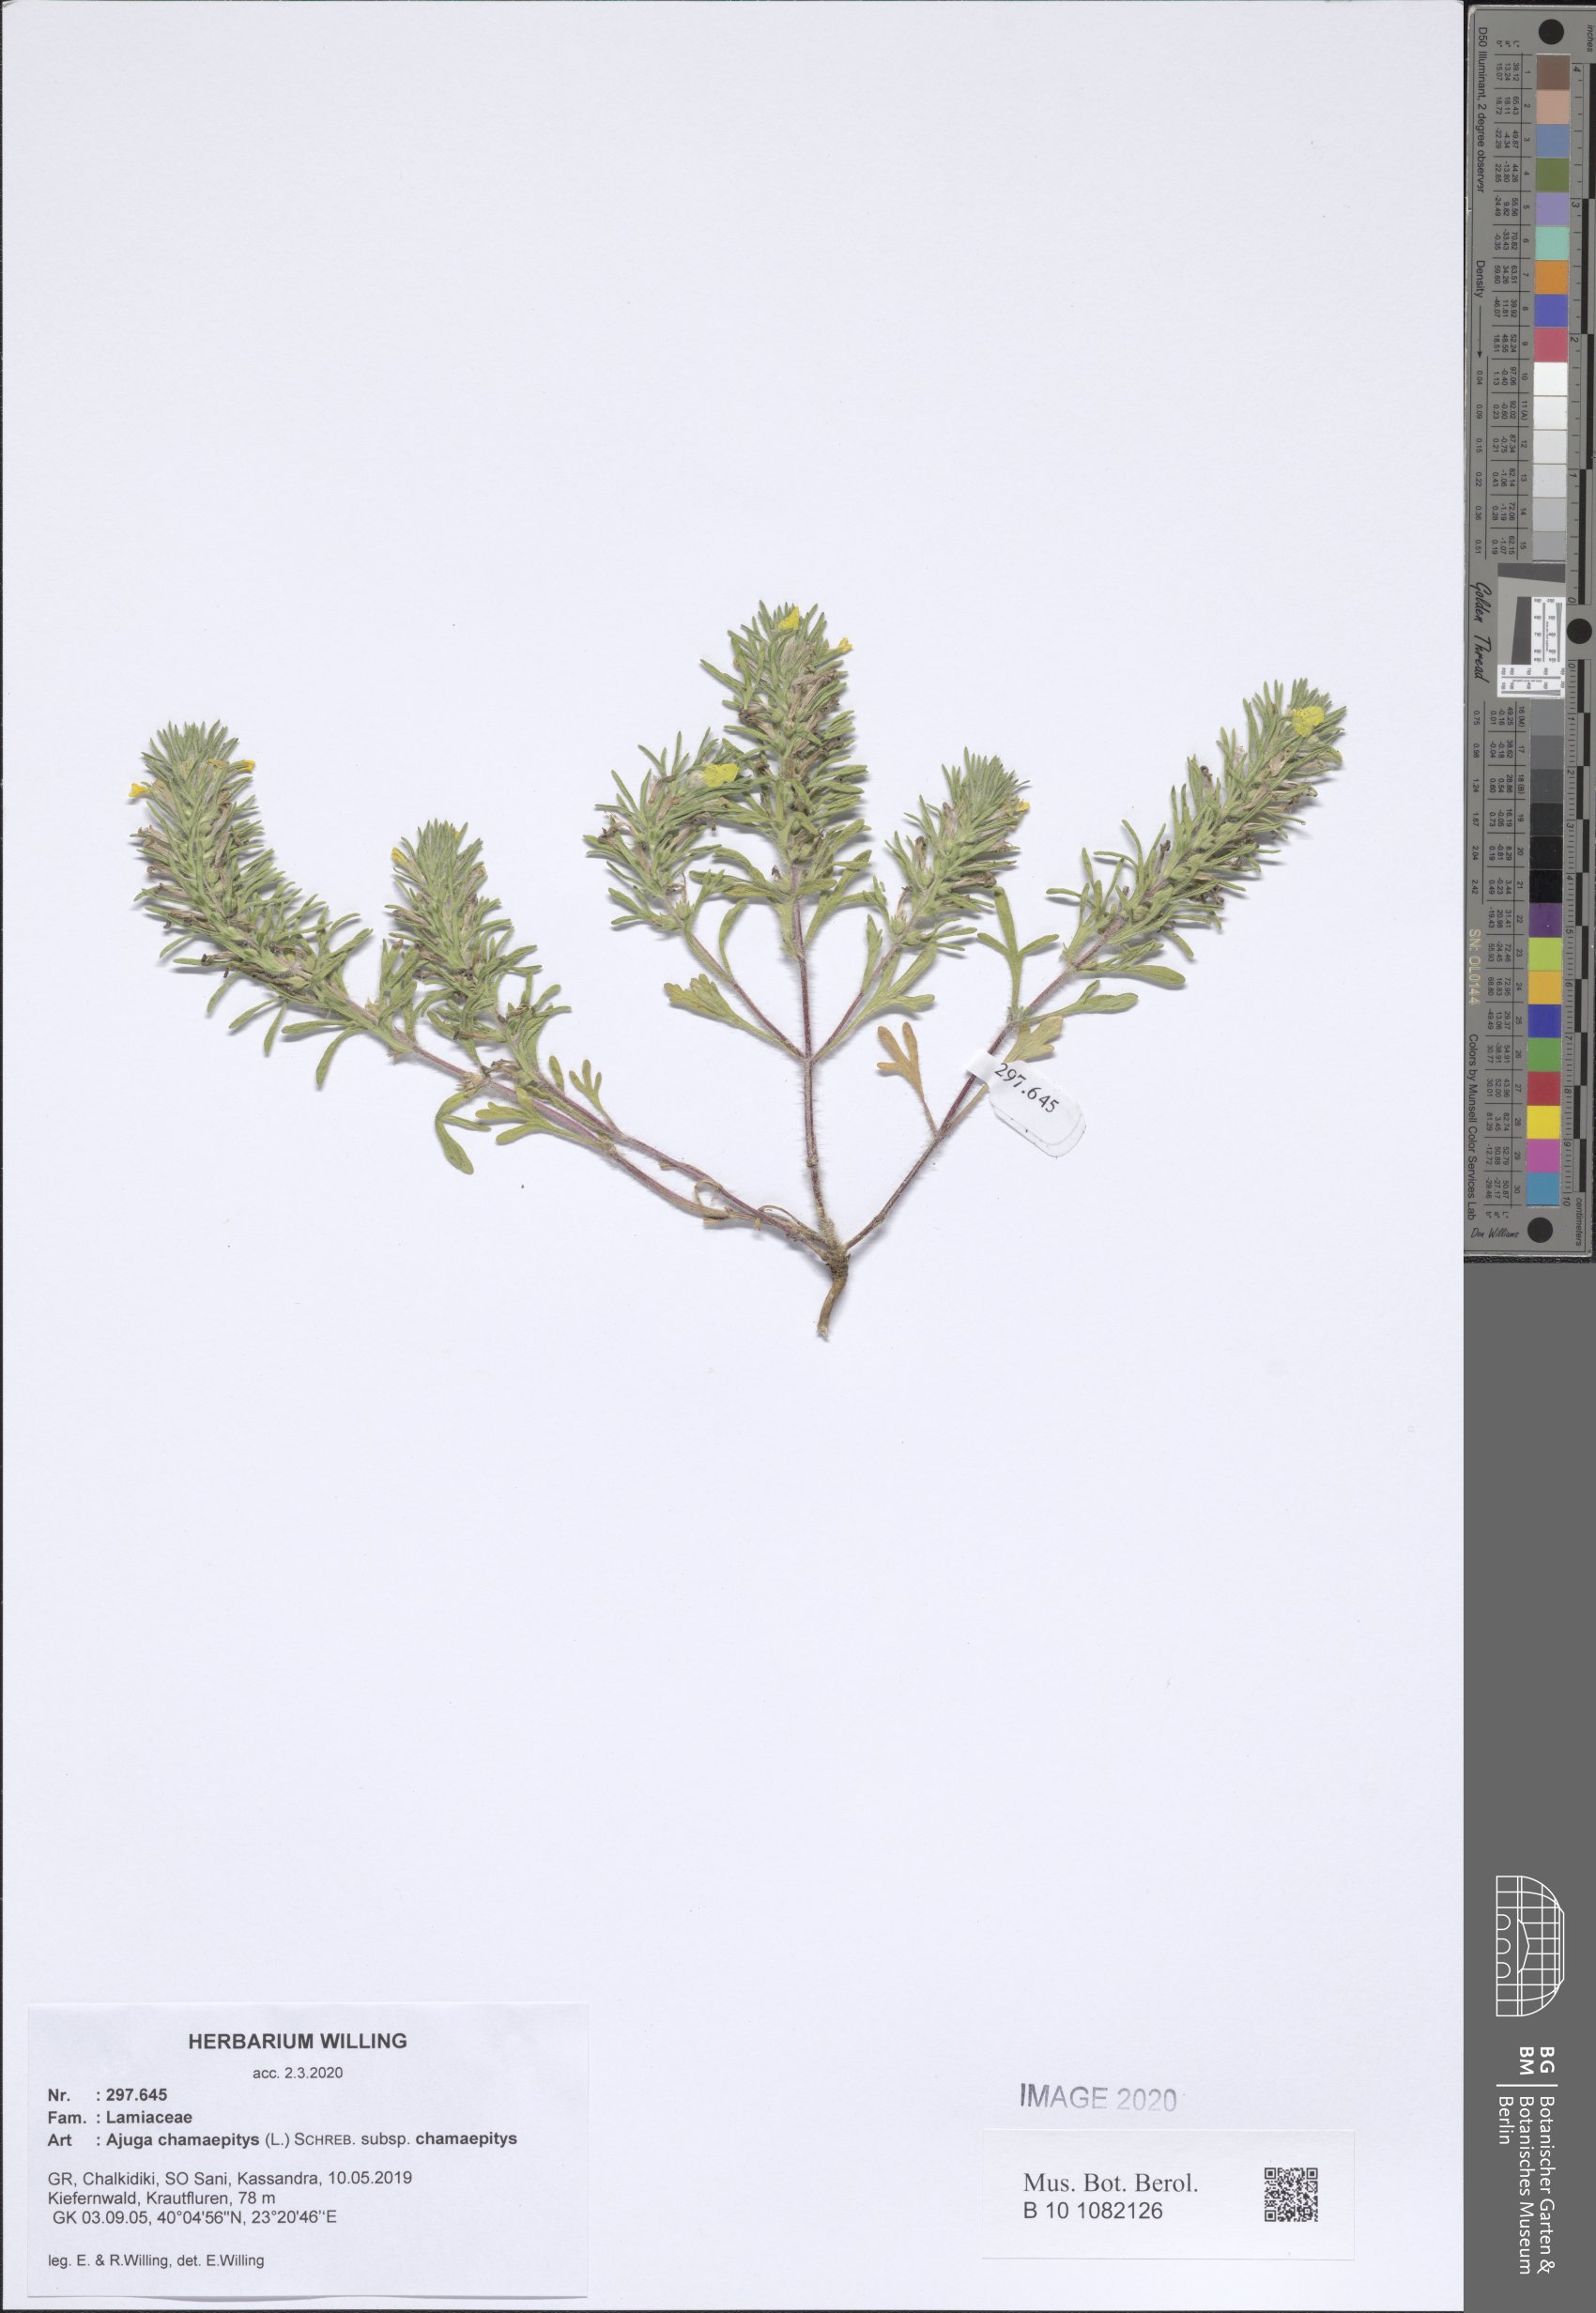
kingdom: Plantae
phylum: Tracheophyta
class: Magnoliopsida
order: Lamiales
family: Lamiaceae
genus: Ajuga
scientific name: Ajuga chamaepitys
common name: Ground-pine
